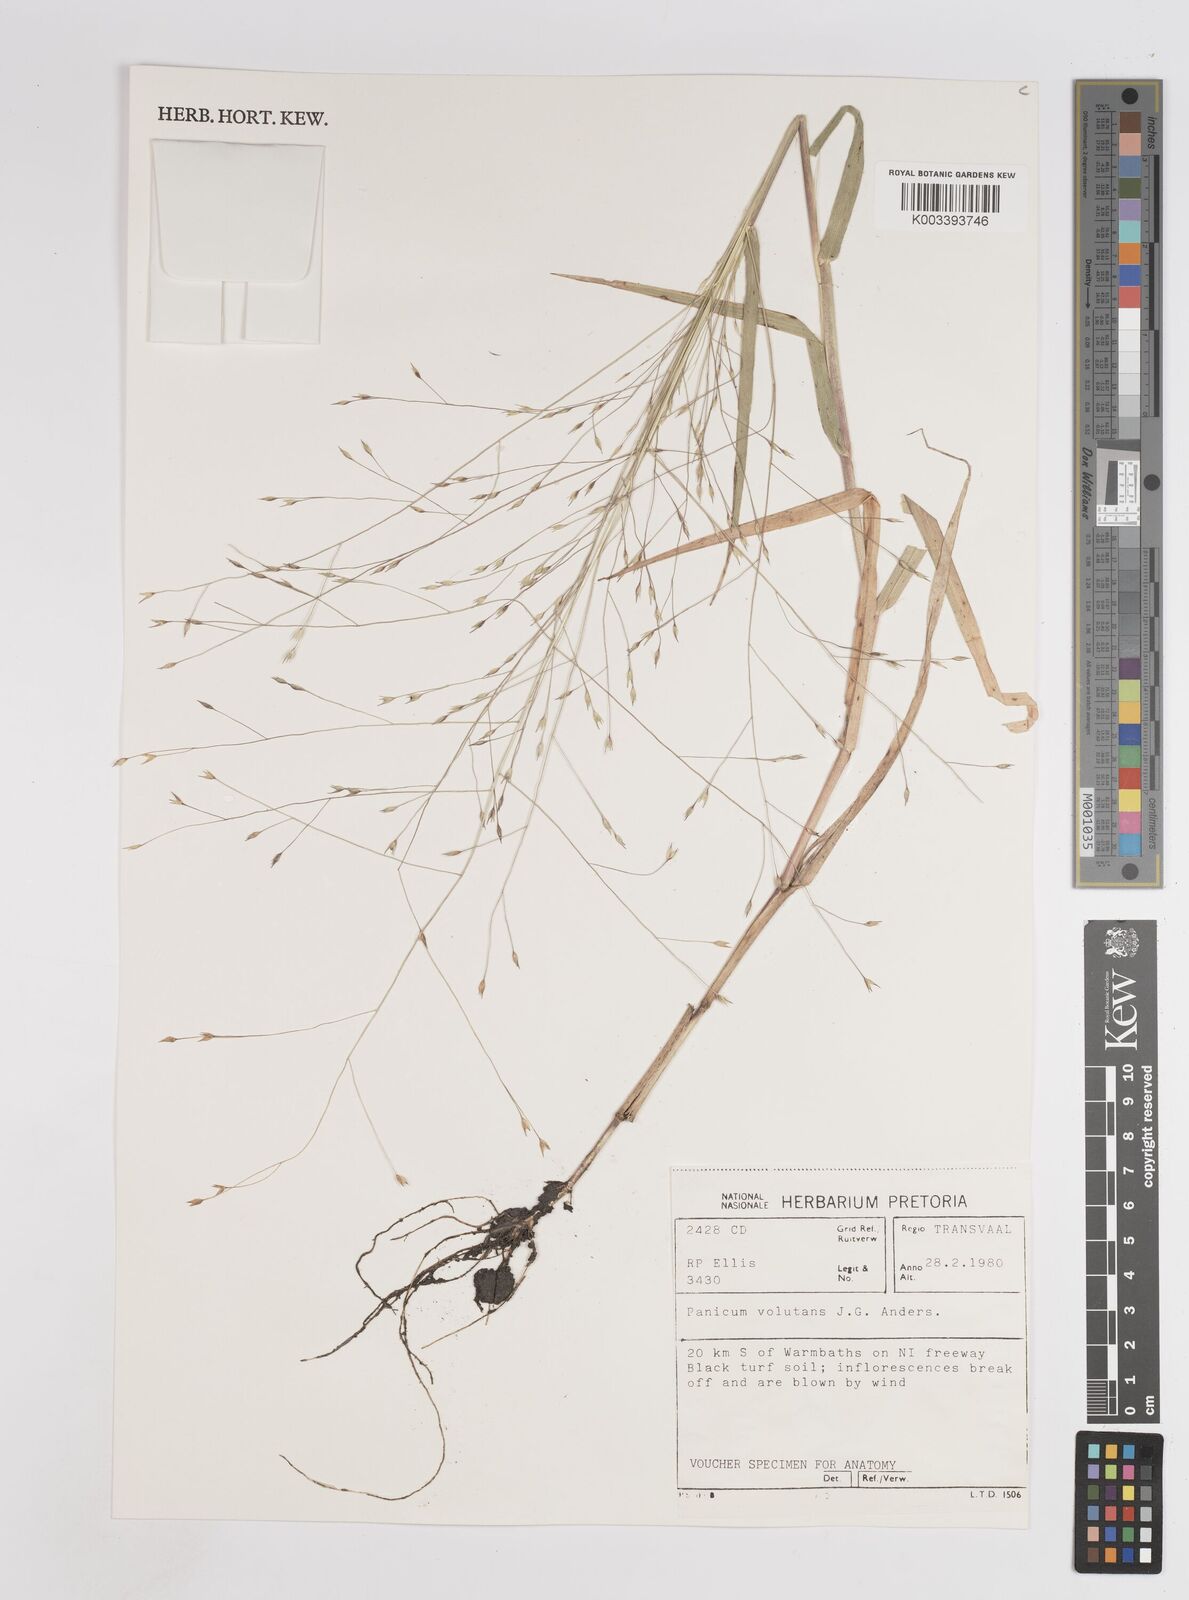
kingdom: Plantae
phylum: Tracheophyta
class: Liliopsida
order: Poales
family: Poaceae
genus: Panicum
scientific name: Panicum volutans
